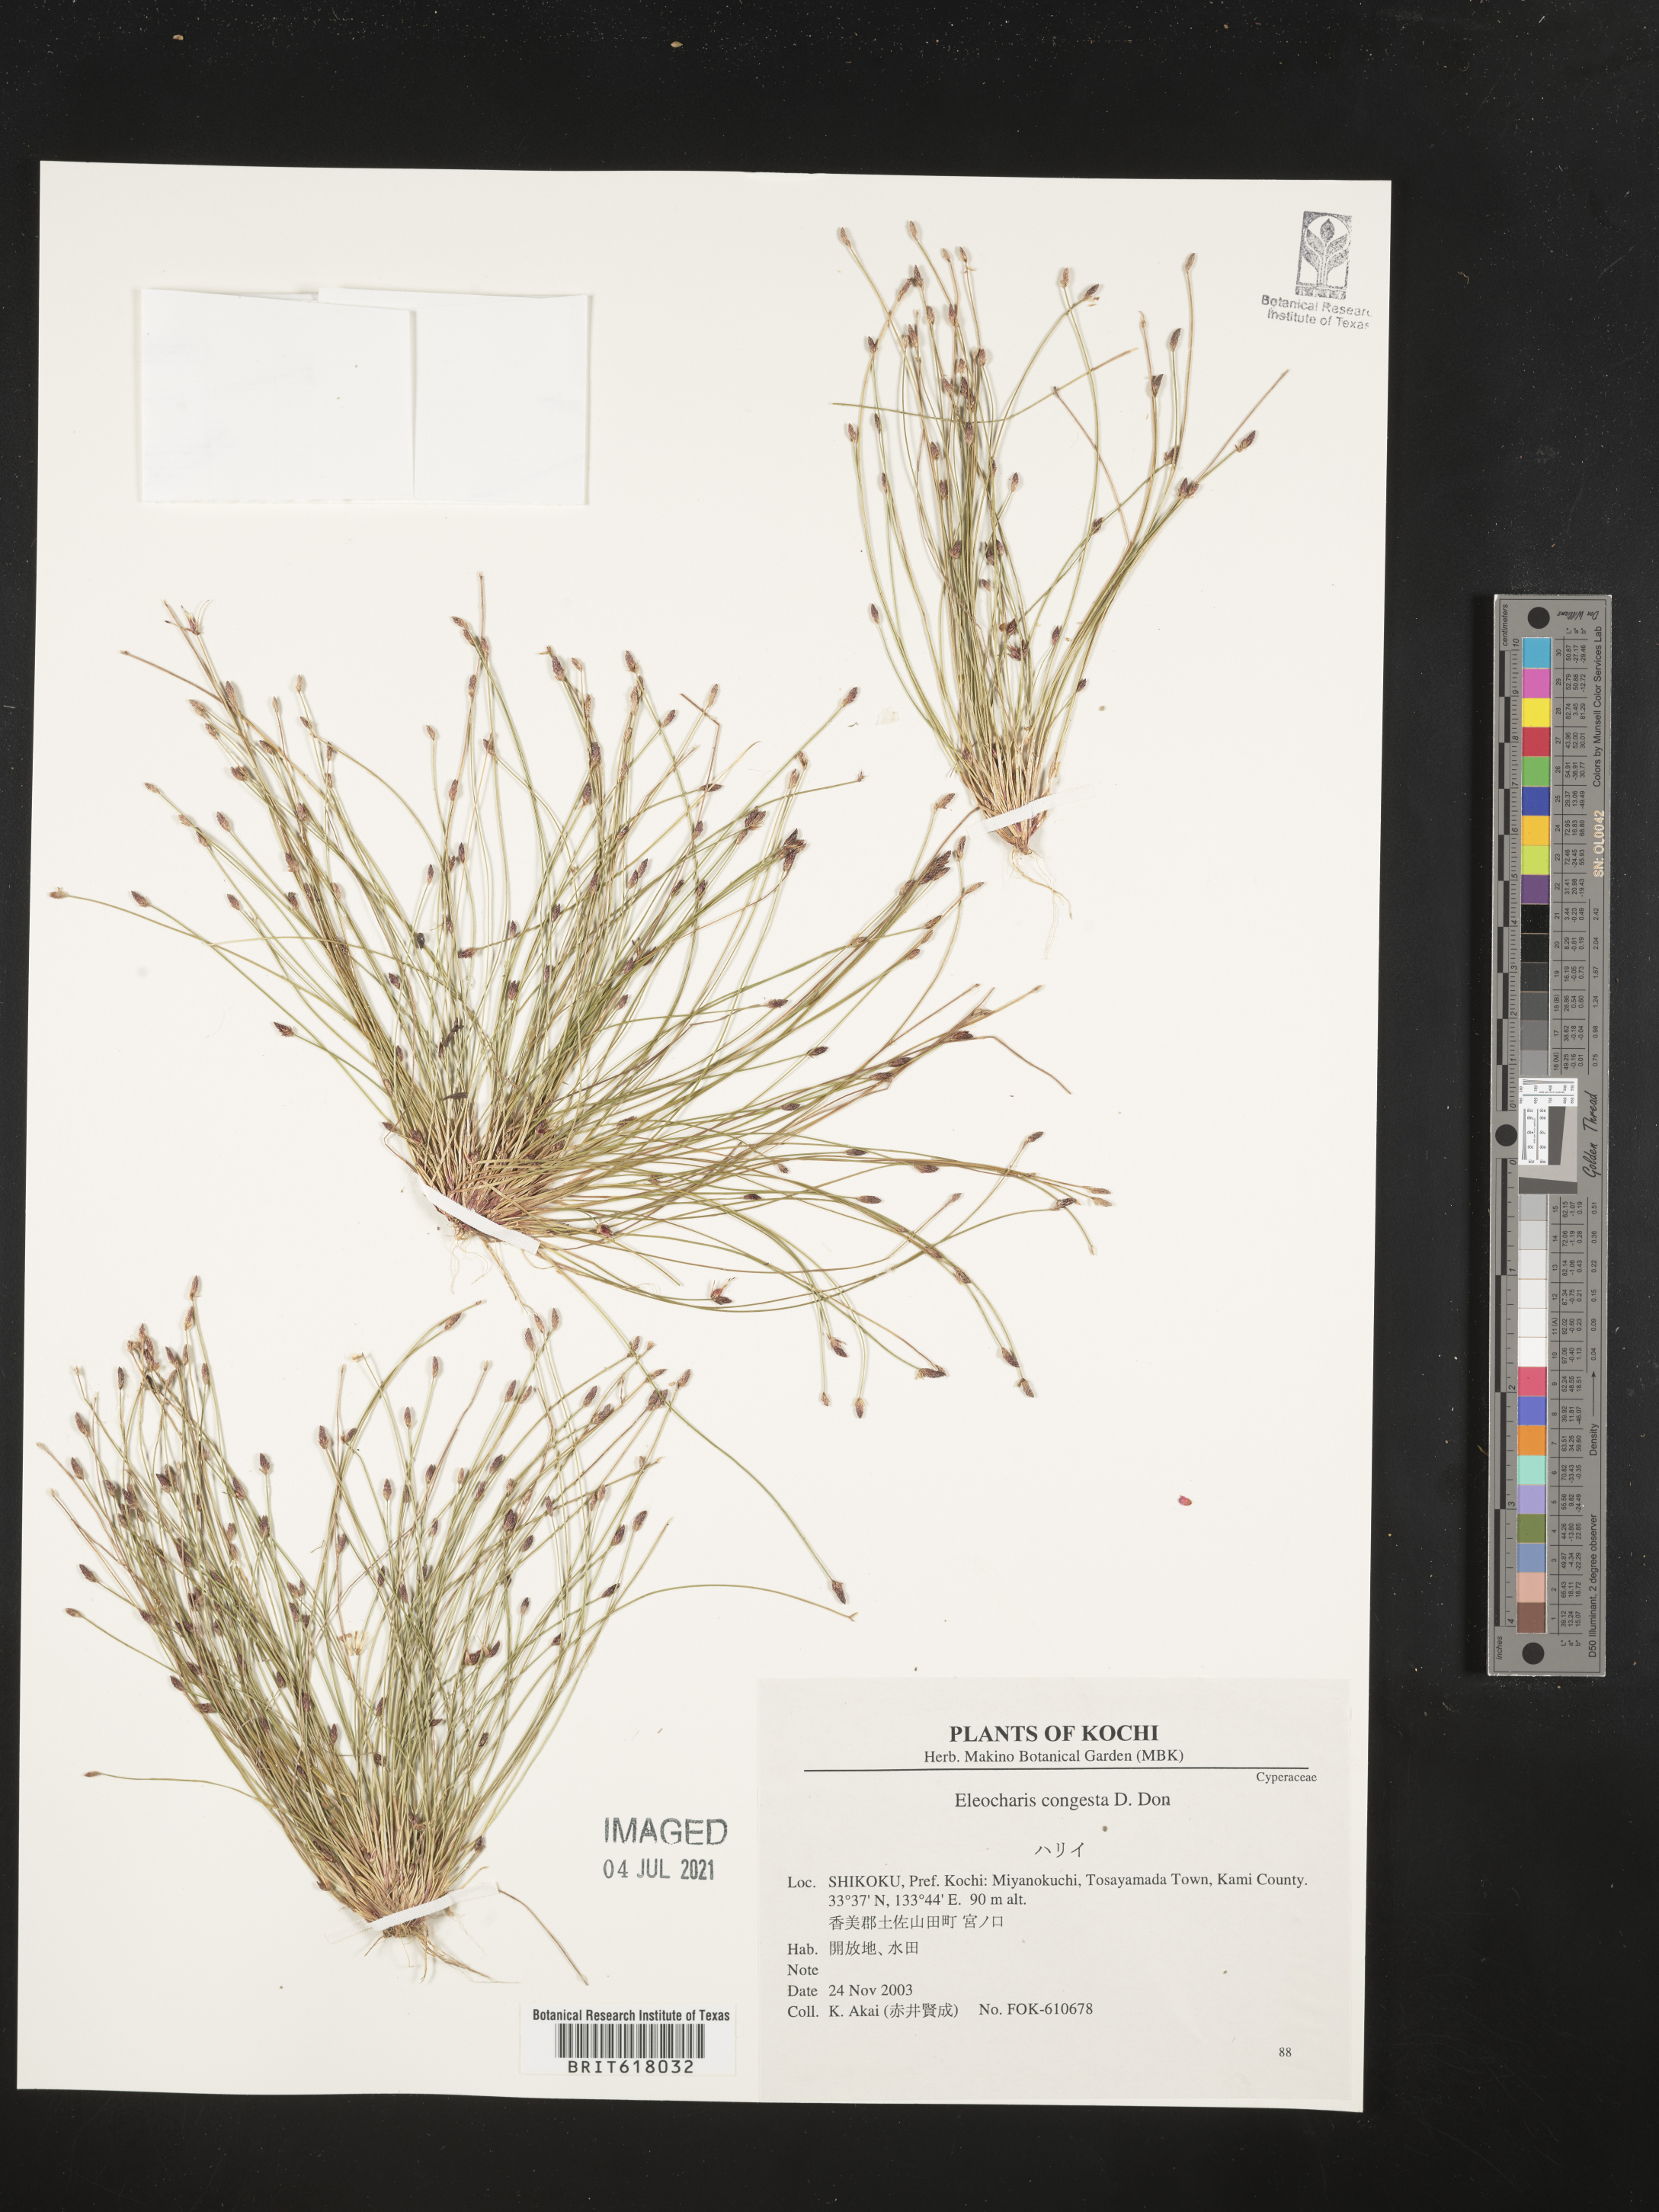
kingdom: Plantae
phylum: Tracheophyta
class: Liliopsida
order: Poales
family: Cyperaceae
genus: Eleocharis
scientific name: Eleocharis congesta
